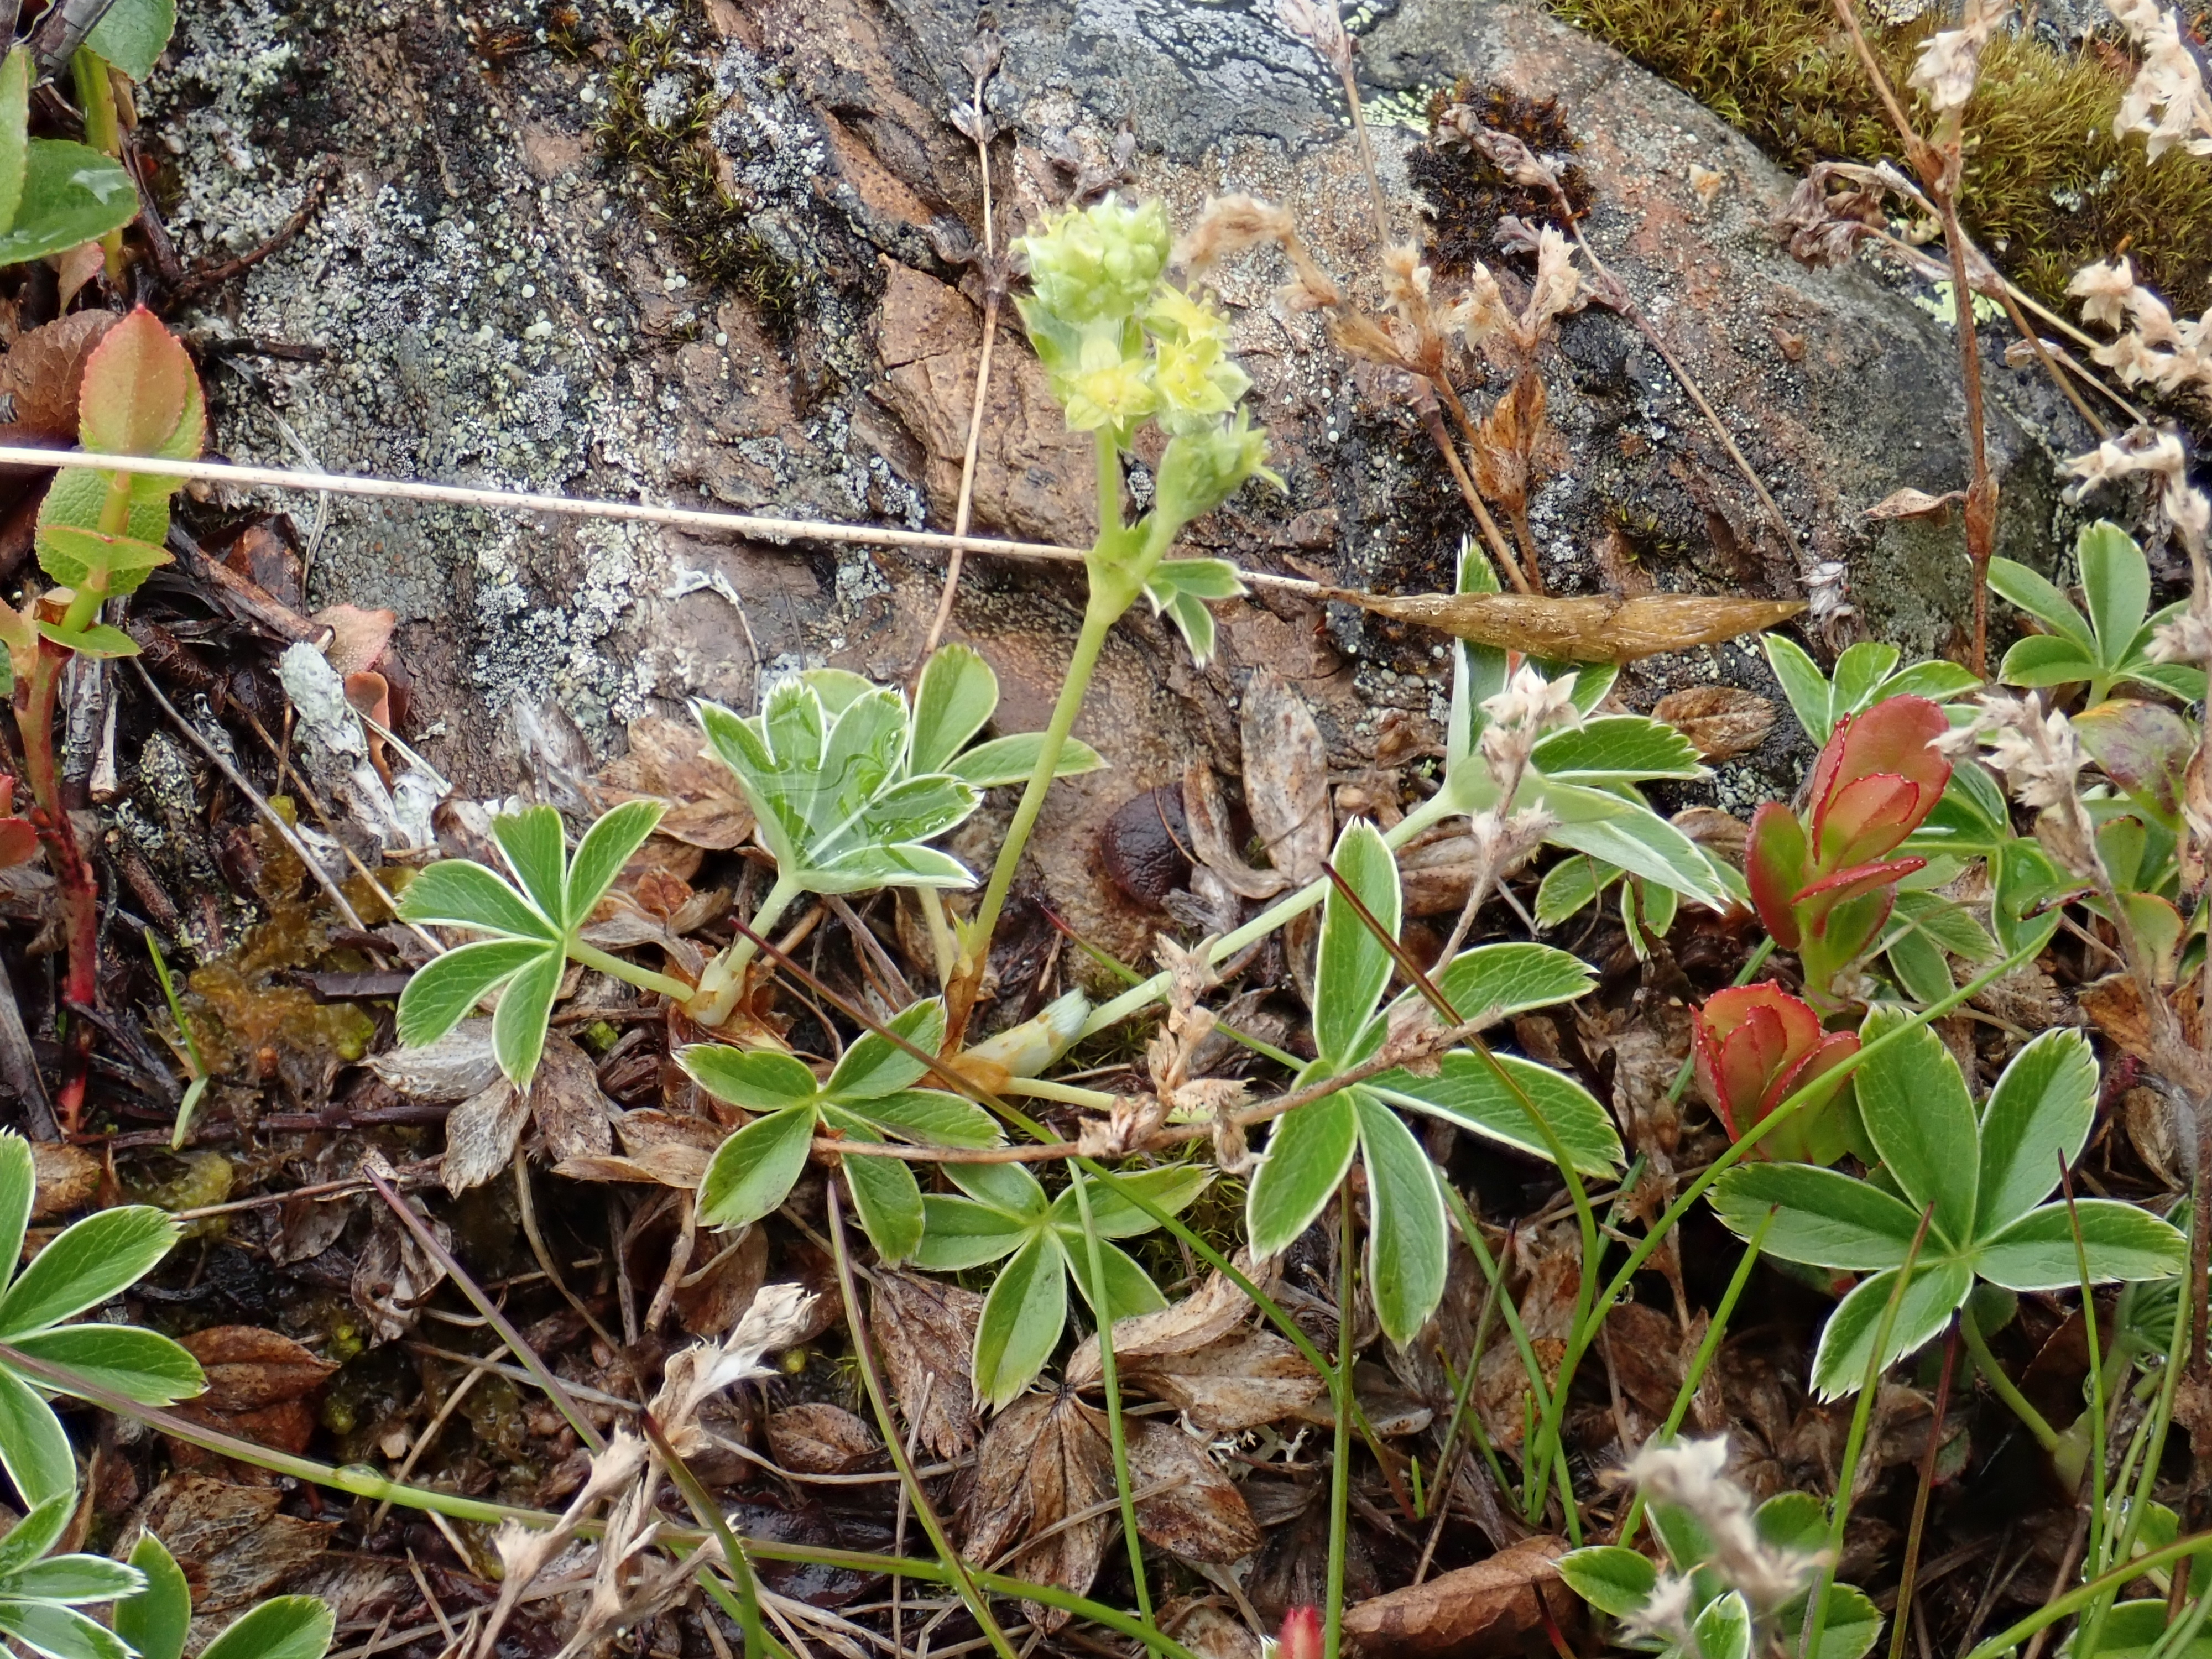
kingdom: Plantae
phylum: Tracheophyta
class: Magnoliopsida
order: Rosales
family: Rosaceae
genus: Alchemilla
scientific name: Alchemilla alpina
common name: Alpine lady's-mantle
